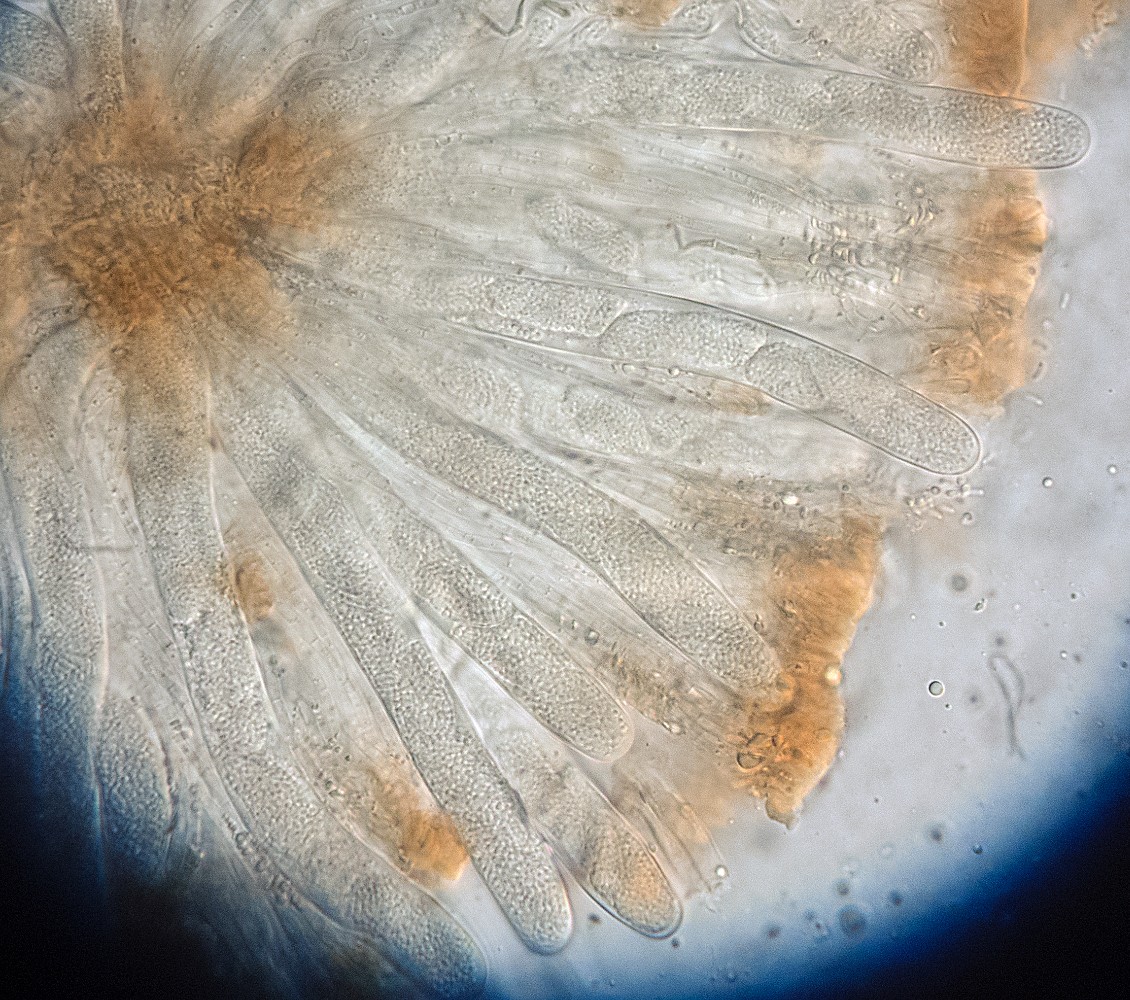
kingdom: Fungi
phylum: Ascomycota
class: Leotiomycetes
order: Leotiales
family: Tympanidaceae
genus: Tympanis
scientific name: Tympanis truncatula
